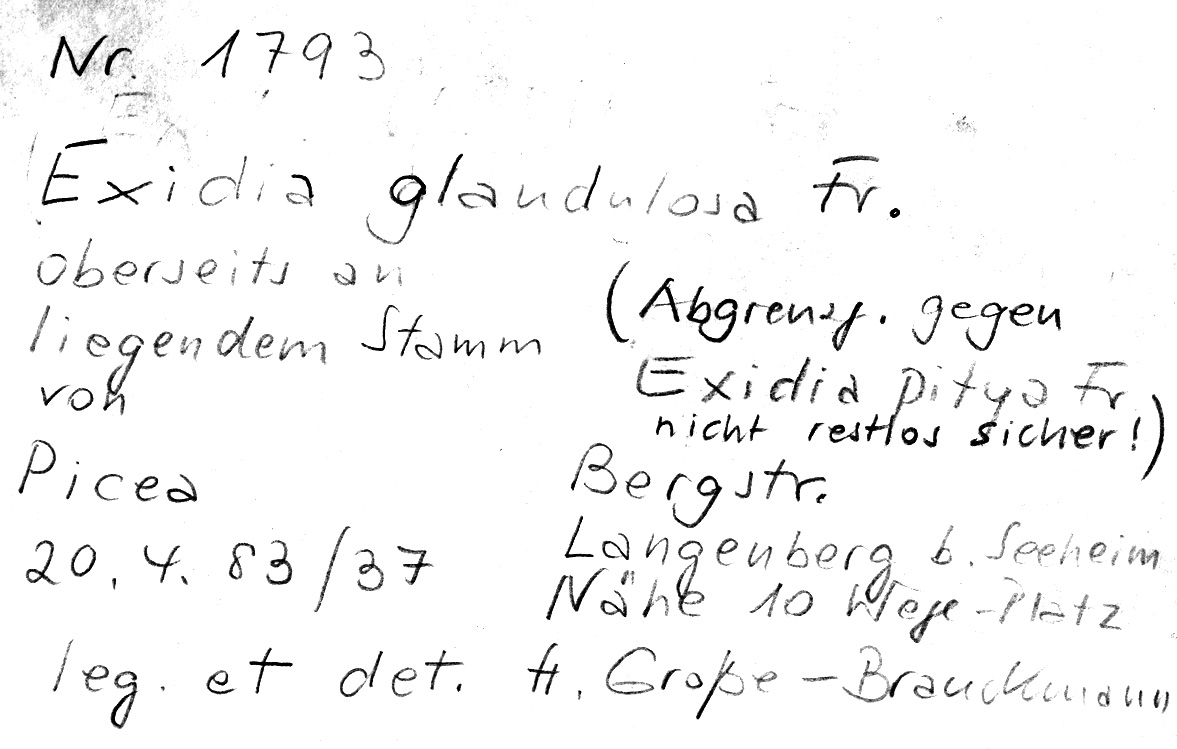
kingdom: Fungi
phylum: Basidiomycota
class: Agaricomycetes
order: Auriculariales
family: Auriculariaceae
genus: Exidia
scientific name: Exidia glandulosa
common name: Witches' butter
